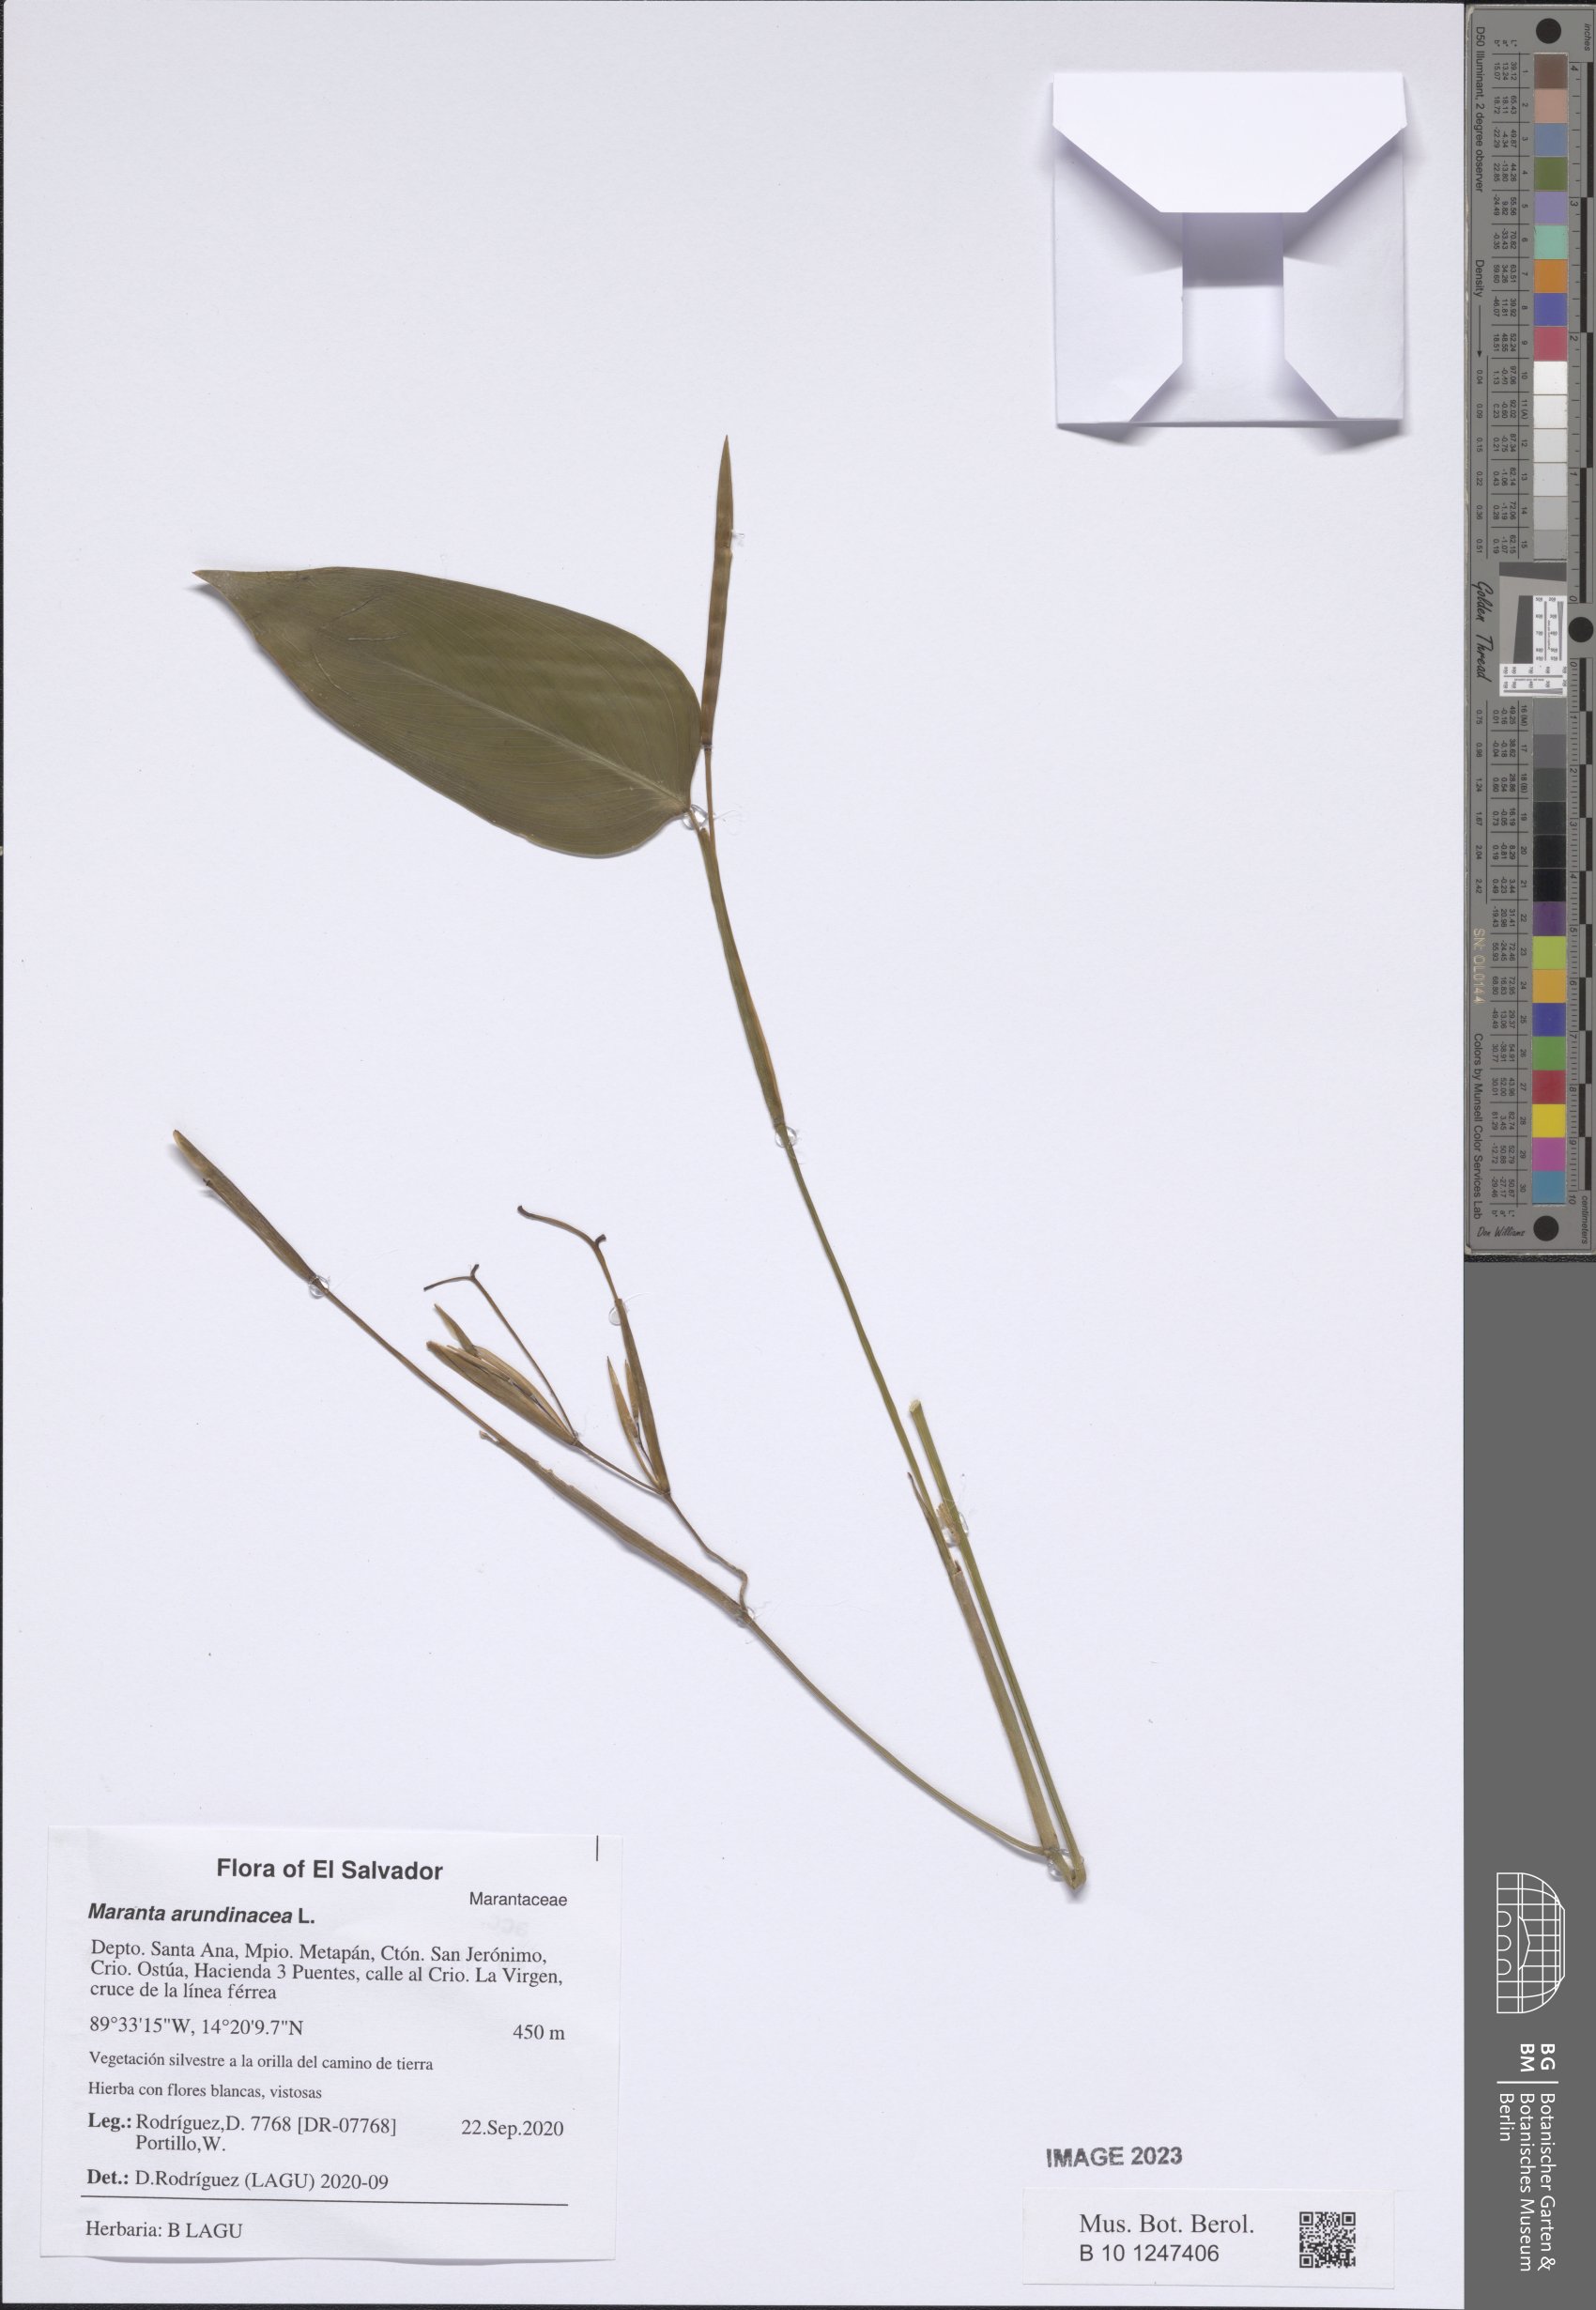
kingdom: Plantae
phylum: Tracheophyta
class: Liliopsida
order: Zingiberales
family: Marantaceae
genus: Maranta
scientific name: Maranta arundinacea
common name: Arrowroot
